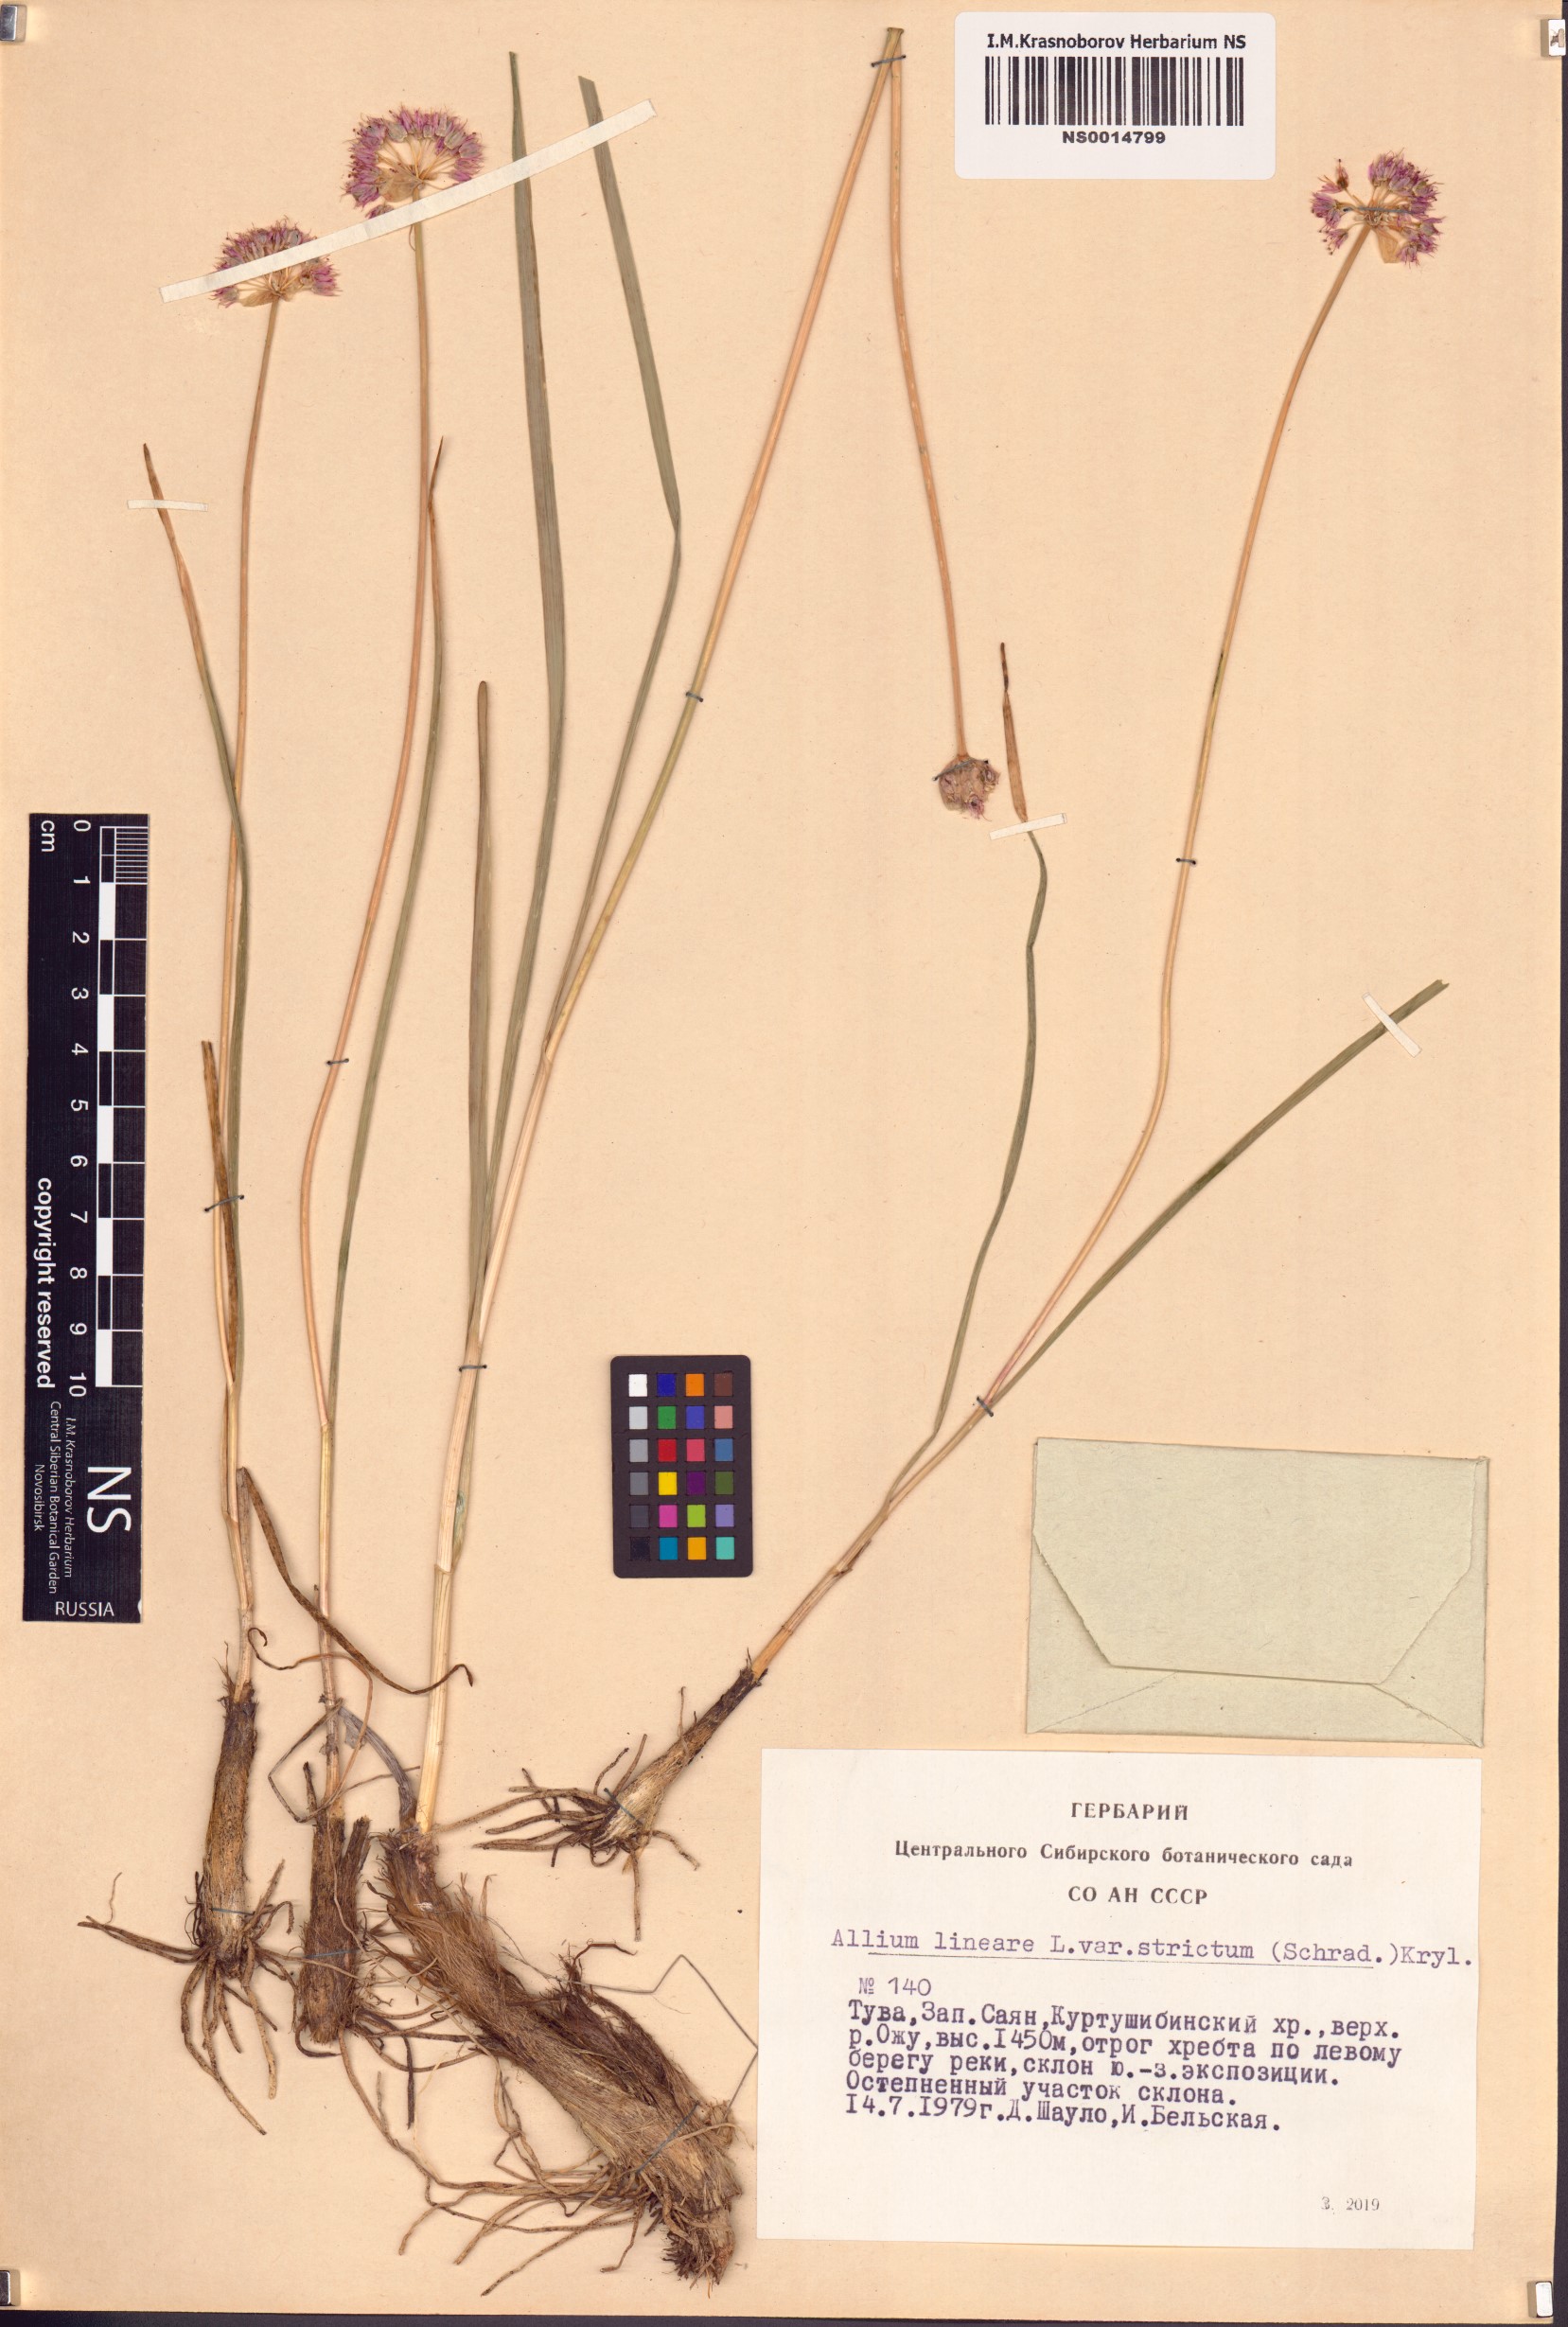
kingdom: Plantae
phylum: Tracheophyta
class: Liliopsida
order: Asparagales
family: Amaryllidaceae
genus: Allium
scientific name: Allium strictum
